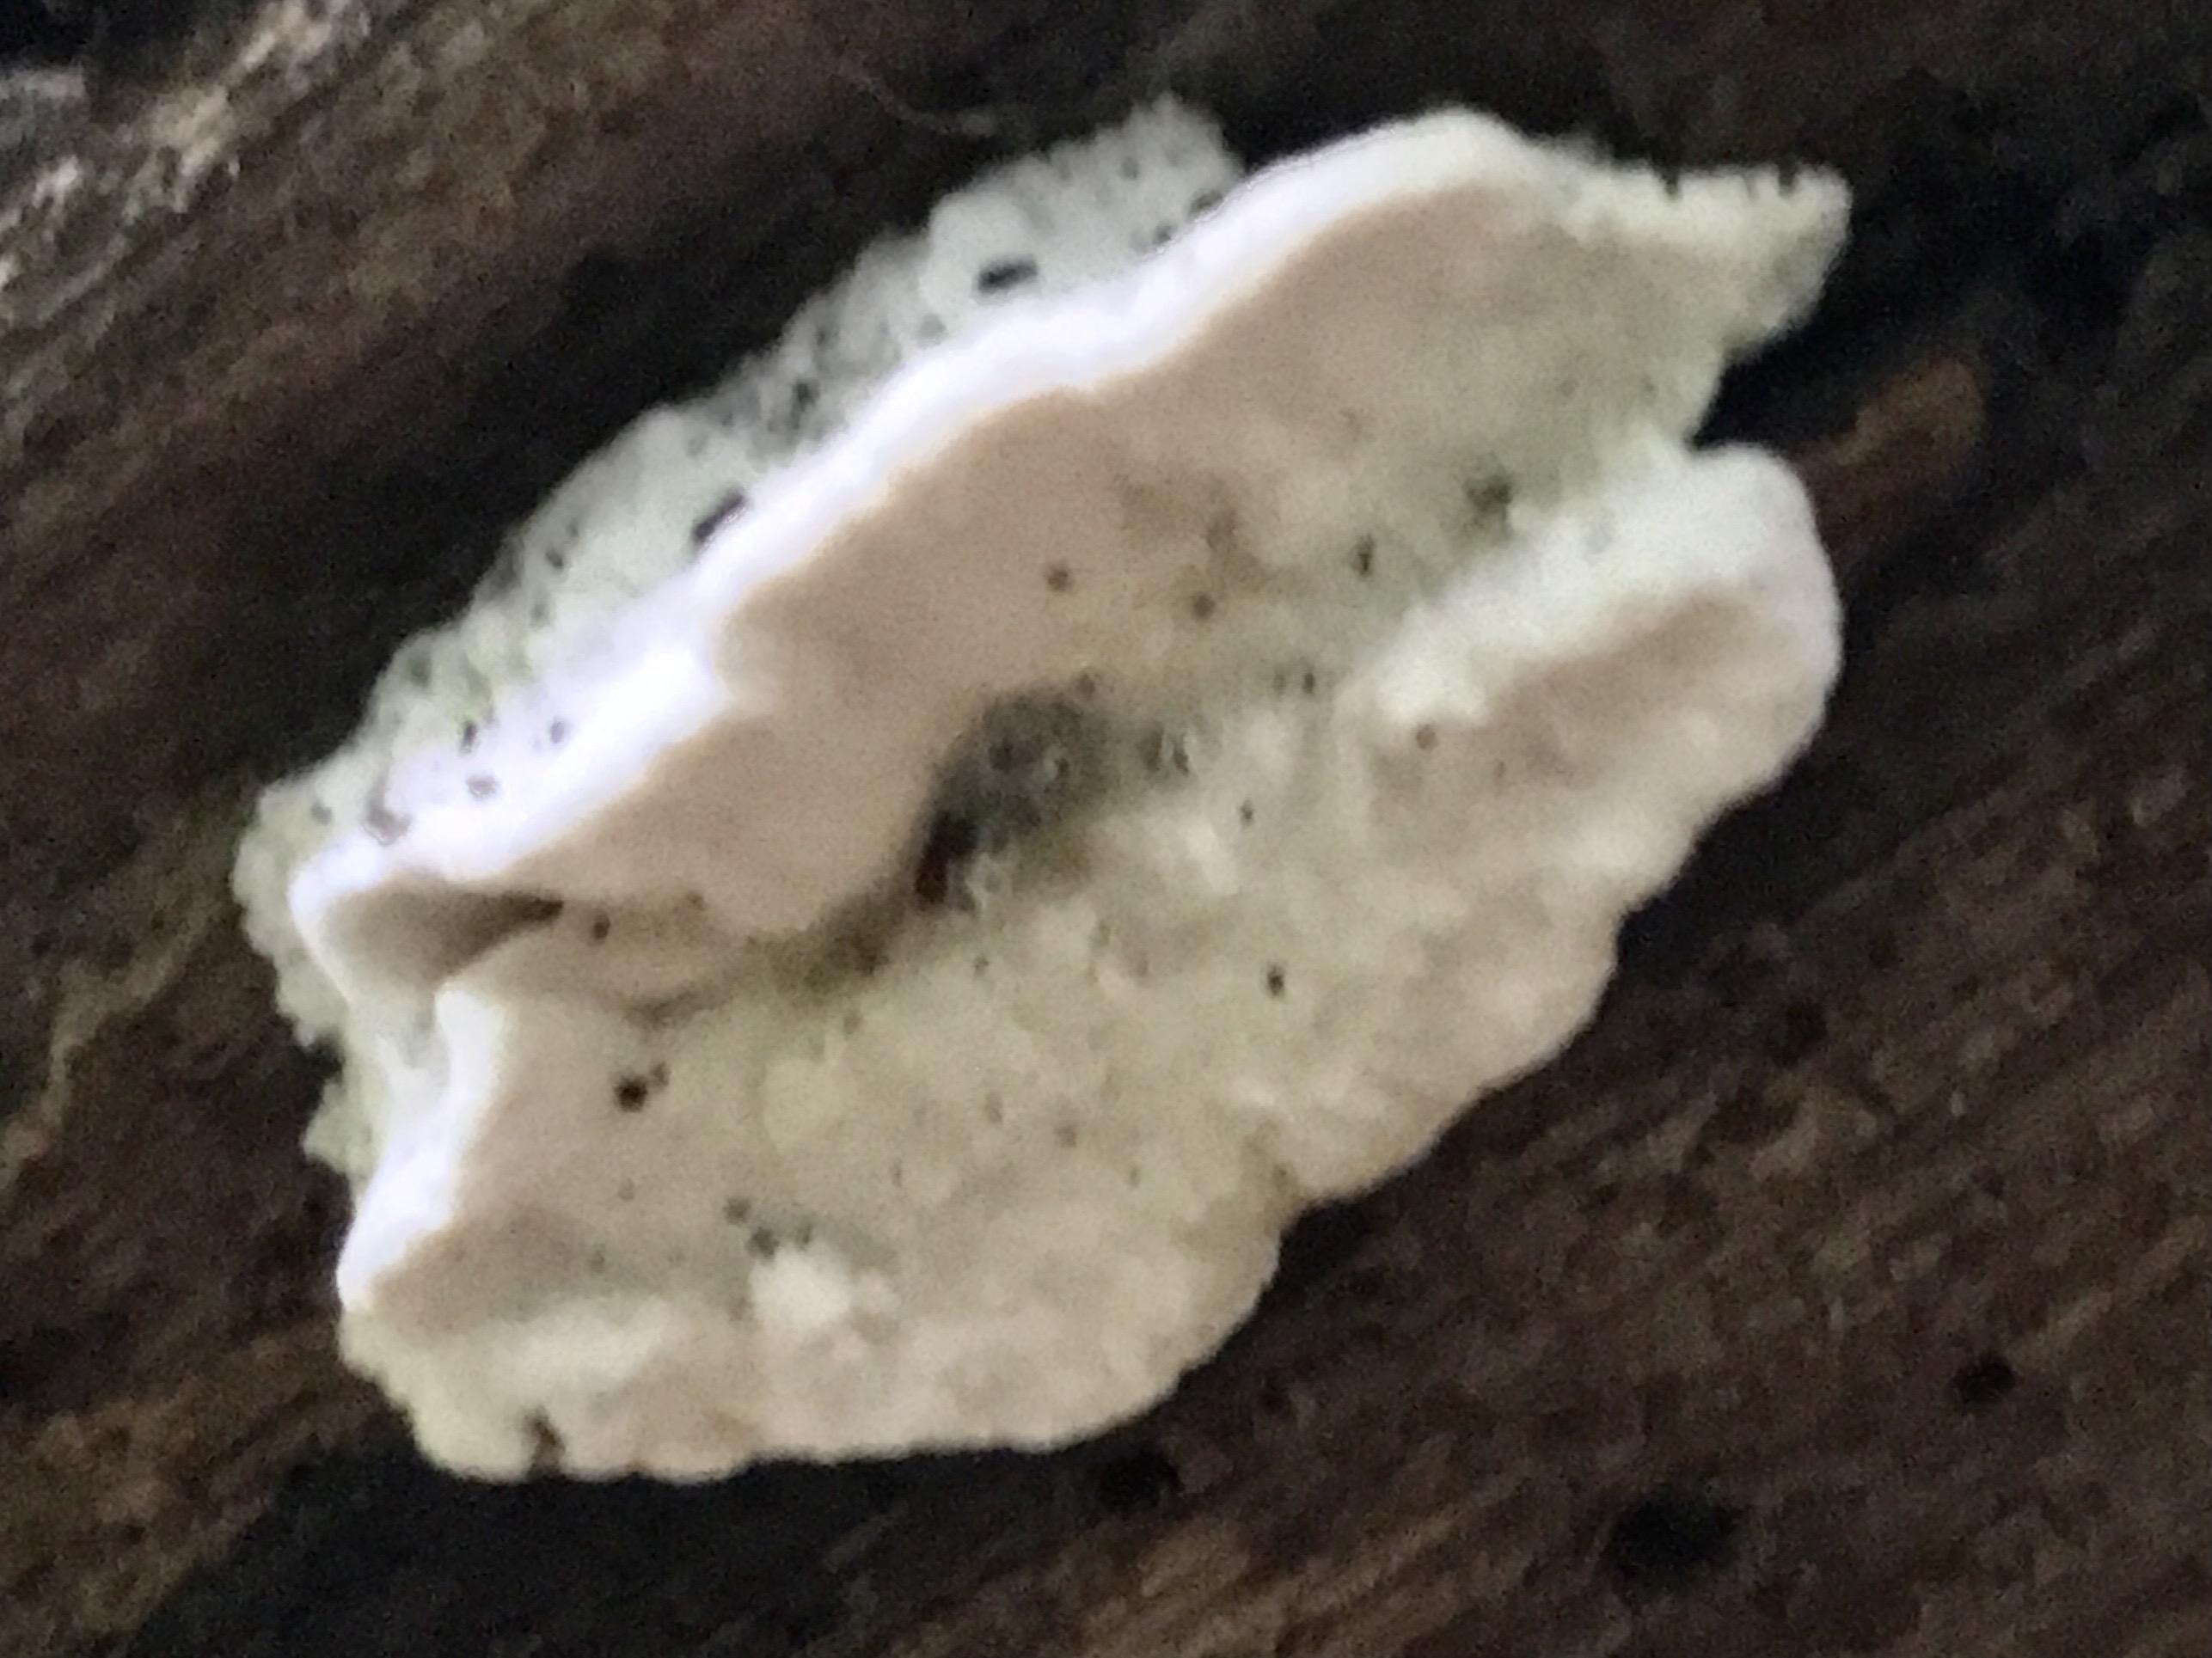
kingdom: Fungi
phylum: Basidiomycota
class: Agaricomycetes
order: Polyporales
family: Polyporaceae
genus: Cyanosporus
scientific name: Cyanosporus alni
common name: blegblå kødporesvamp
